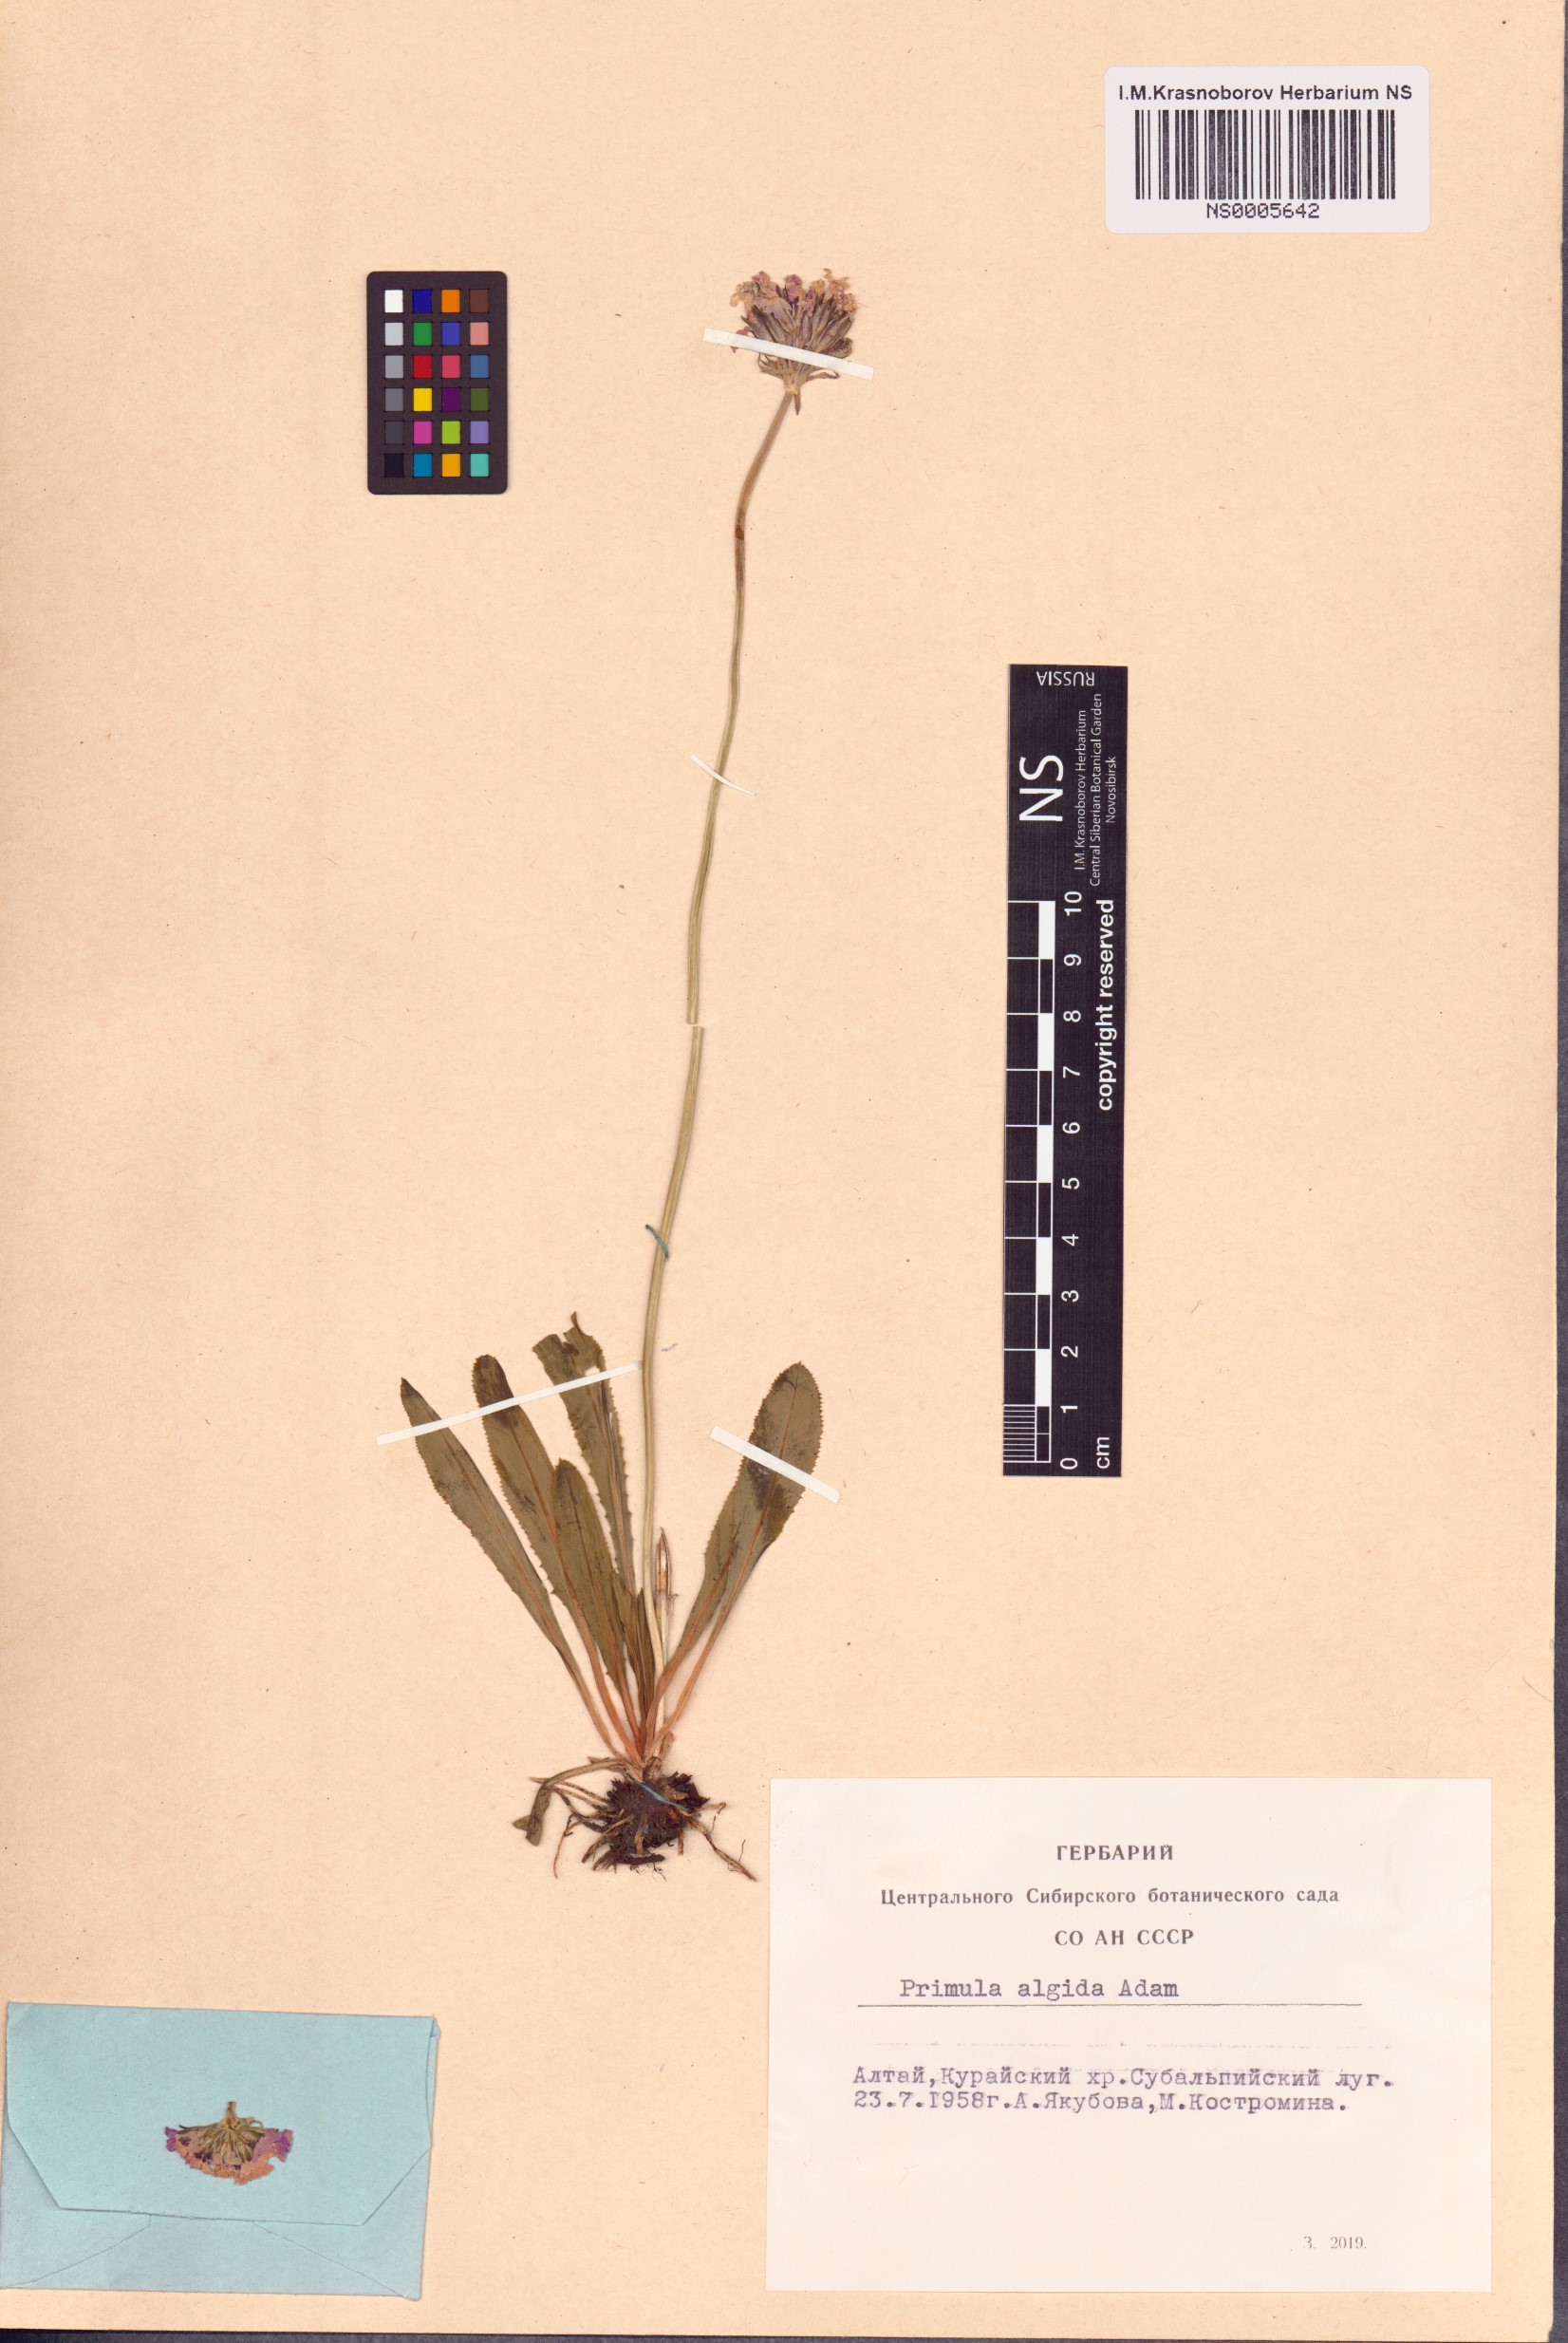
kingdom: Plantae
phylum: Tracheophyta
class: Magnoliopsida
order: Ericales
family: Primulaceae
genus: Primula
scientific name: Primula algida
